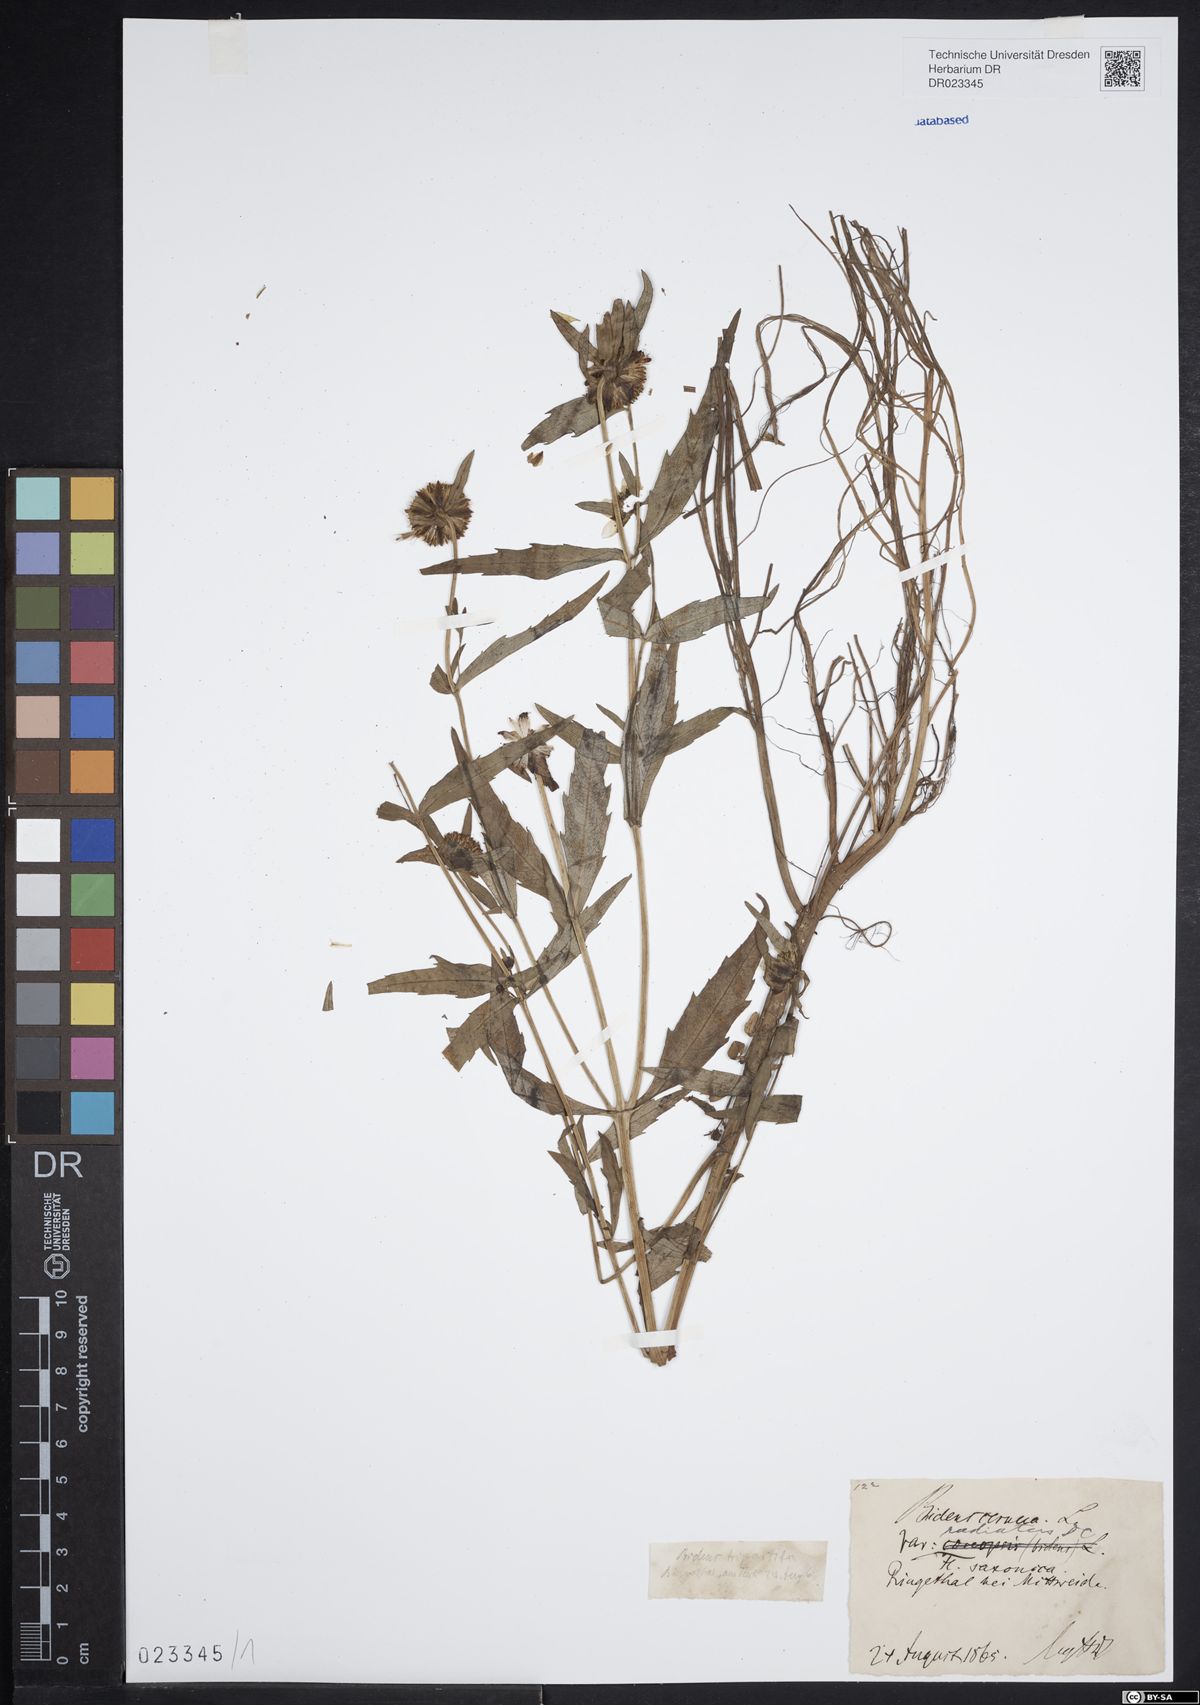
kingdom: Plantae
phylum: Tracheophyta
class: Magnoliopsida
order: Asterales
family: Asteraceae
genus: Bidens
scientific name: Bidens cernua
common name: Nodding bur-marigold
